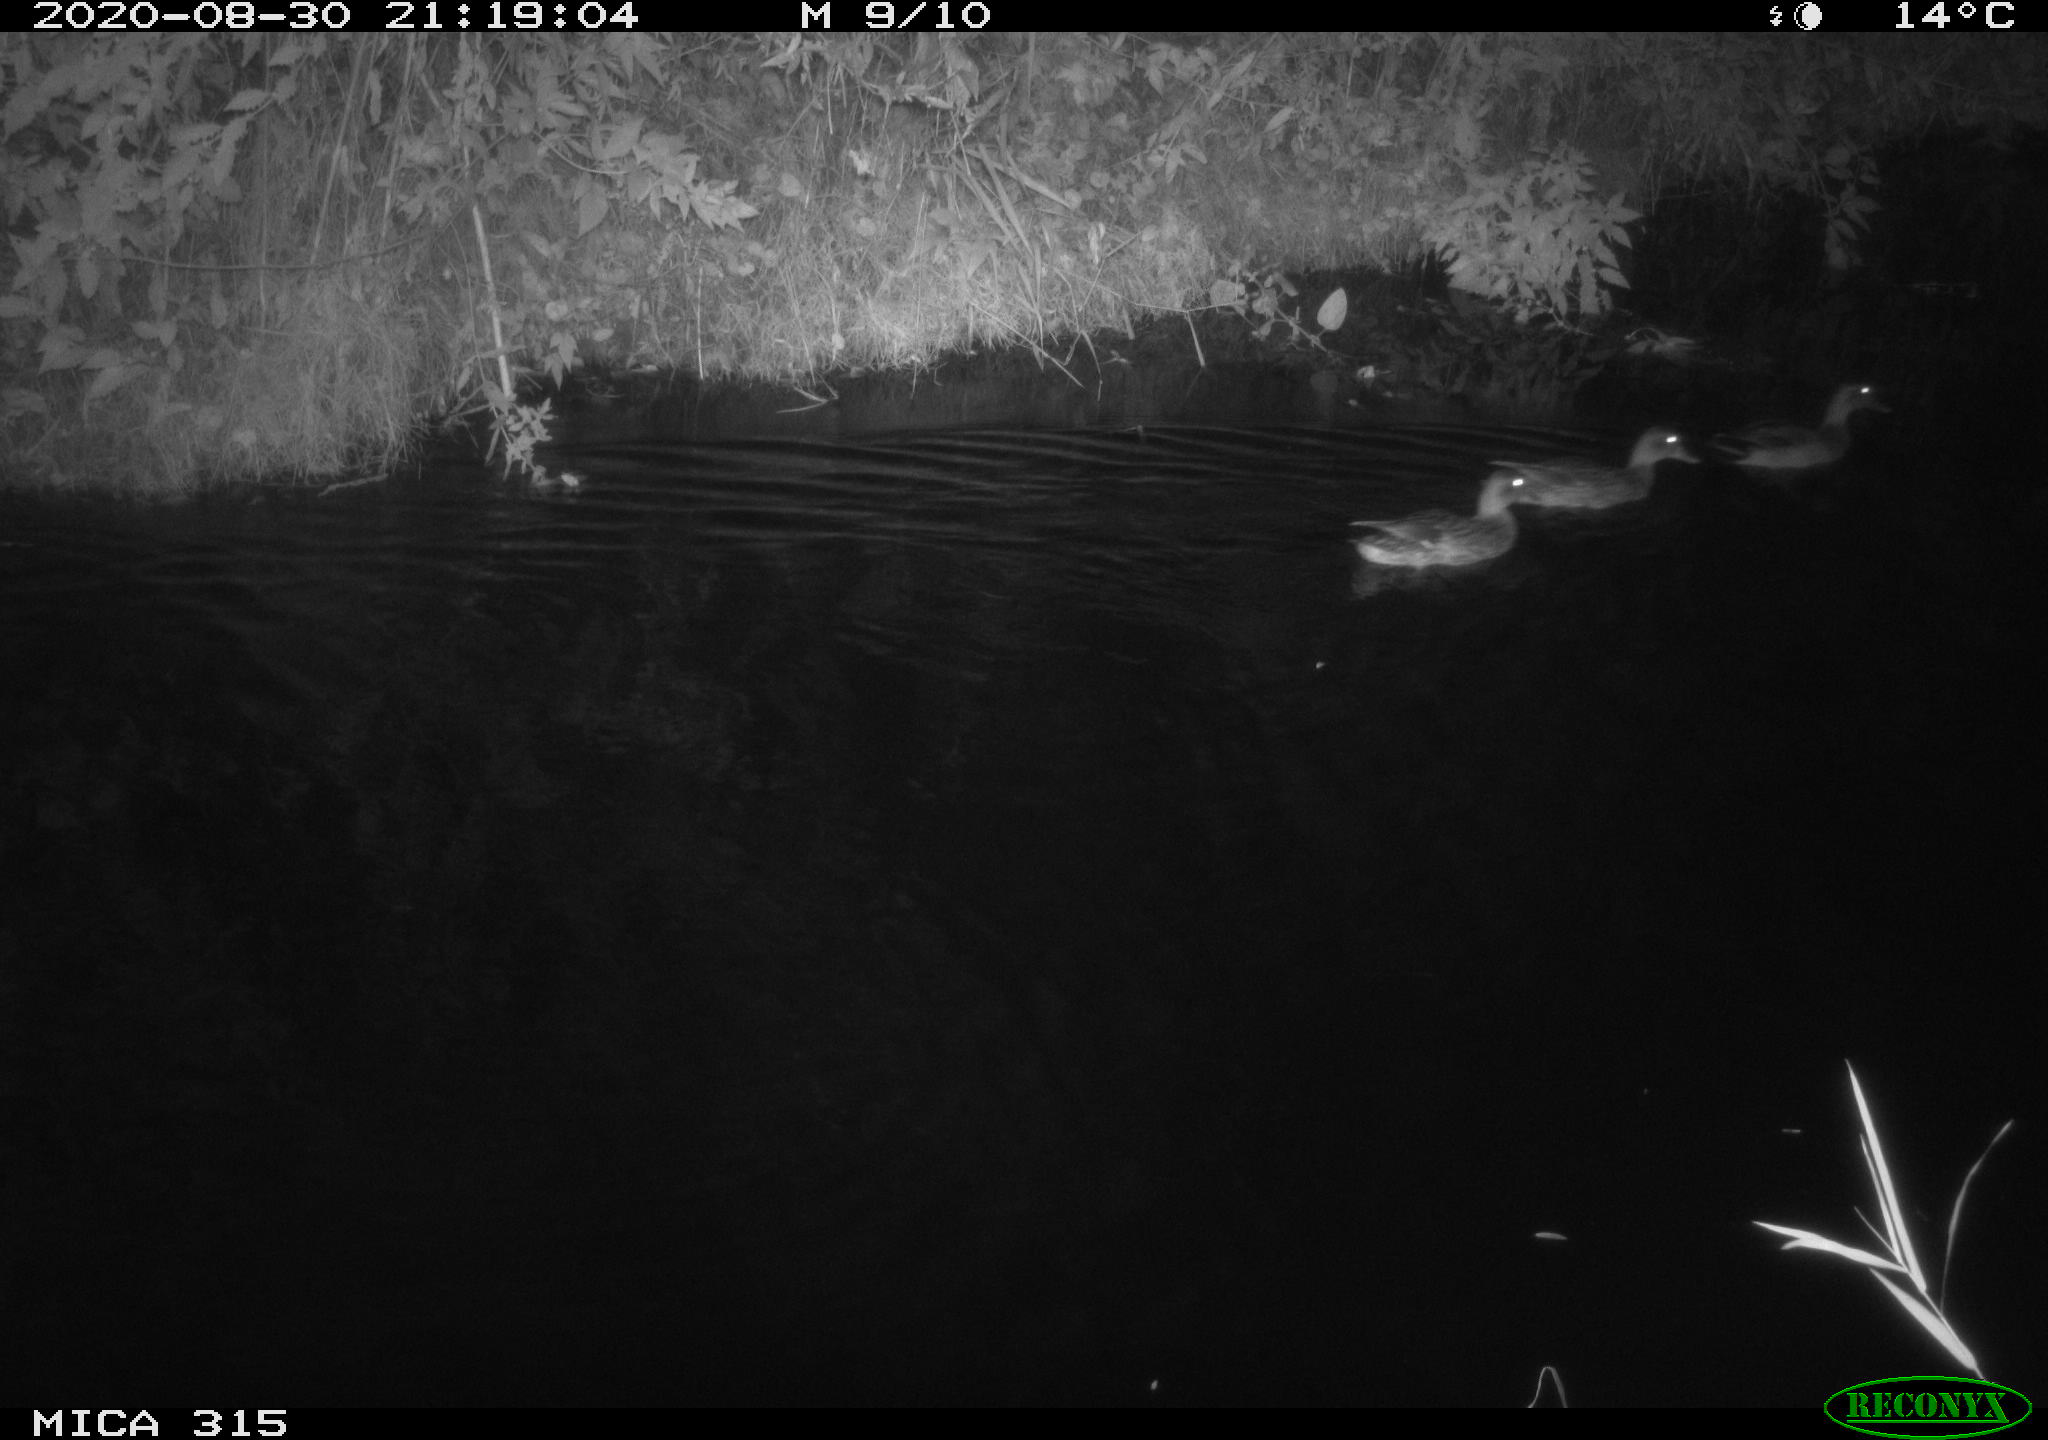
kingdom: Animalia
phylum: Chordata
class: Aves
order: Anseriformes
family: Anatidae
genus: Anas
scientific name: Anas platyrhynchos
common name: Mallard
